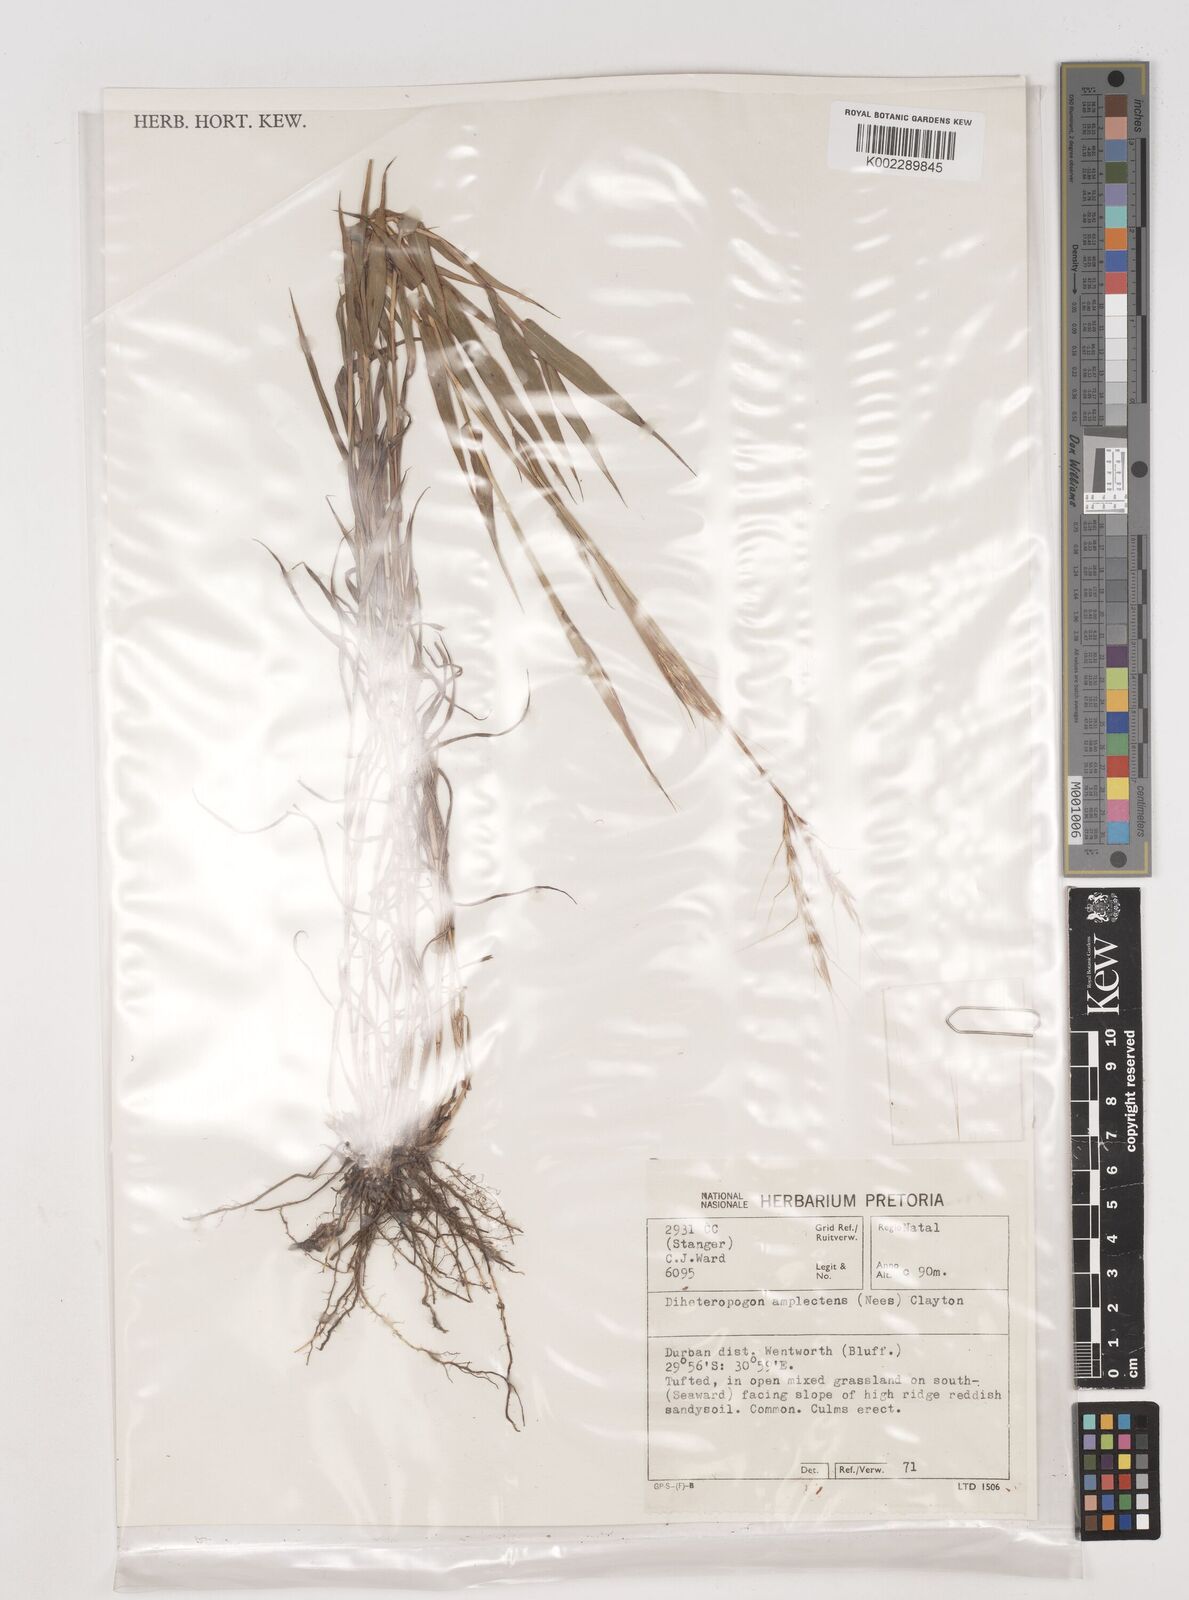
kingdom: Plantae
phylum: Tracheophyta
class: Liliopsida
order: Poales
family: Poaceae
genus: Diheteropogon
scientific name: Diheteropogon amplectens
